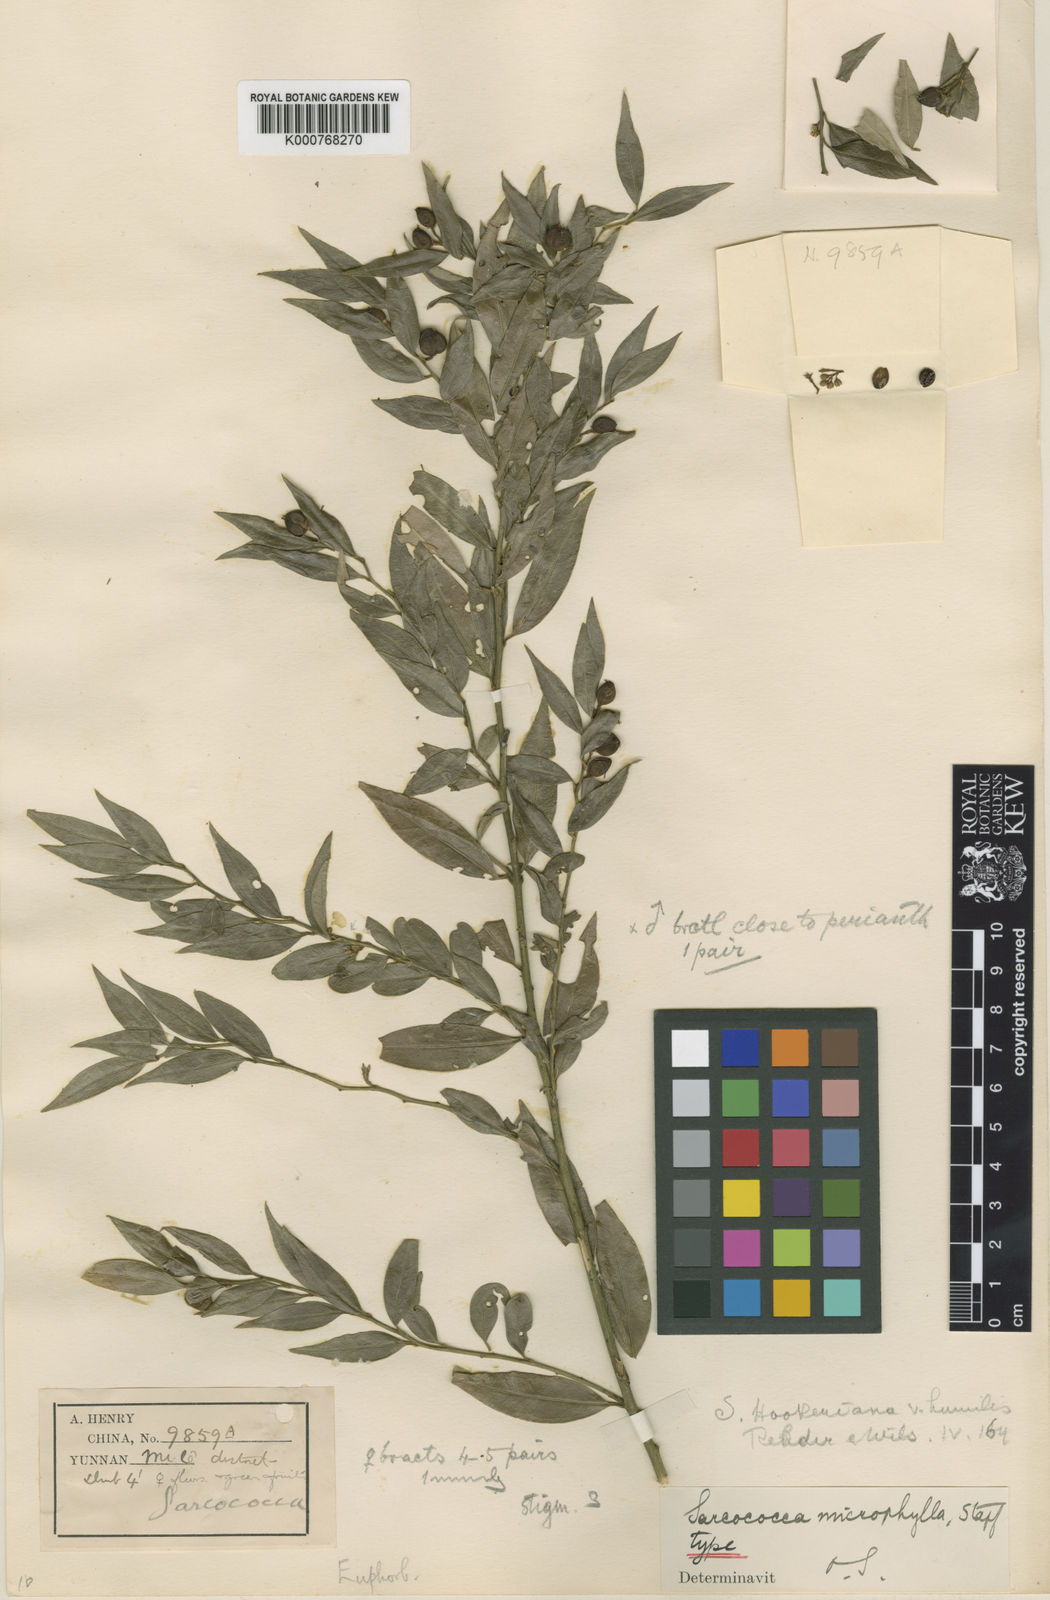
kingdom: Plantae
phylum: Tracheophyta
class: Magnoliopsida
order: Buxales
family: Buxaceae
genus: Sarcococca
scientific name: Sarcococca ruscifolia
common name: Fragrant sweet-box
